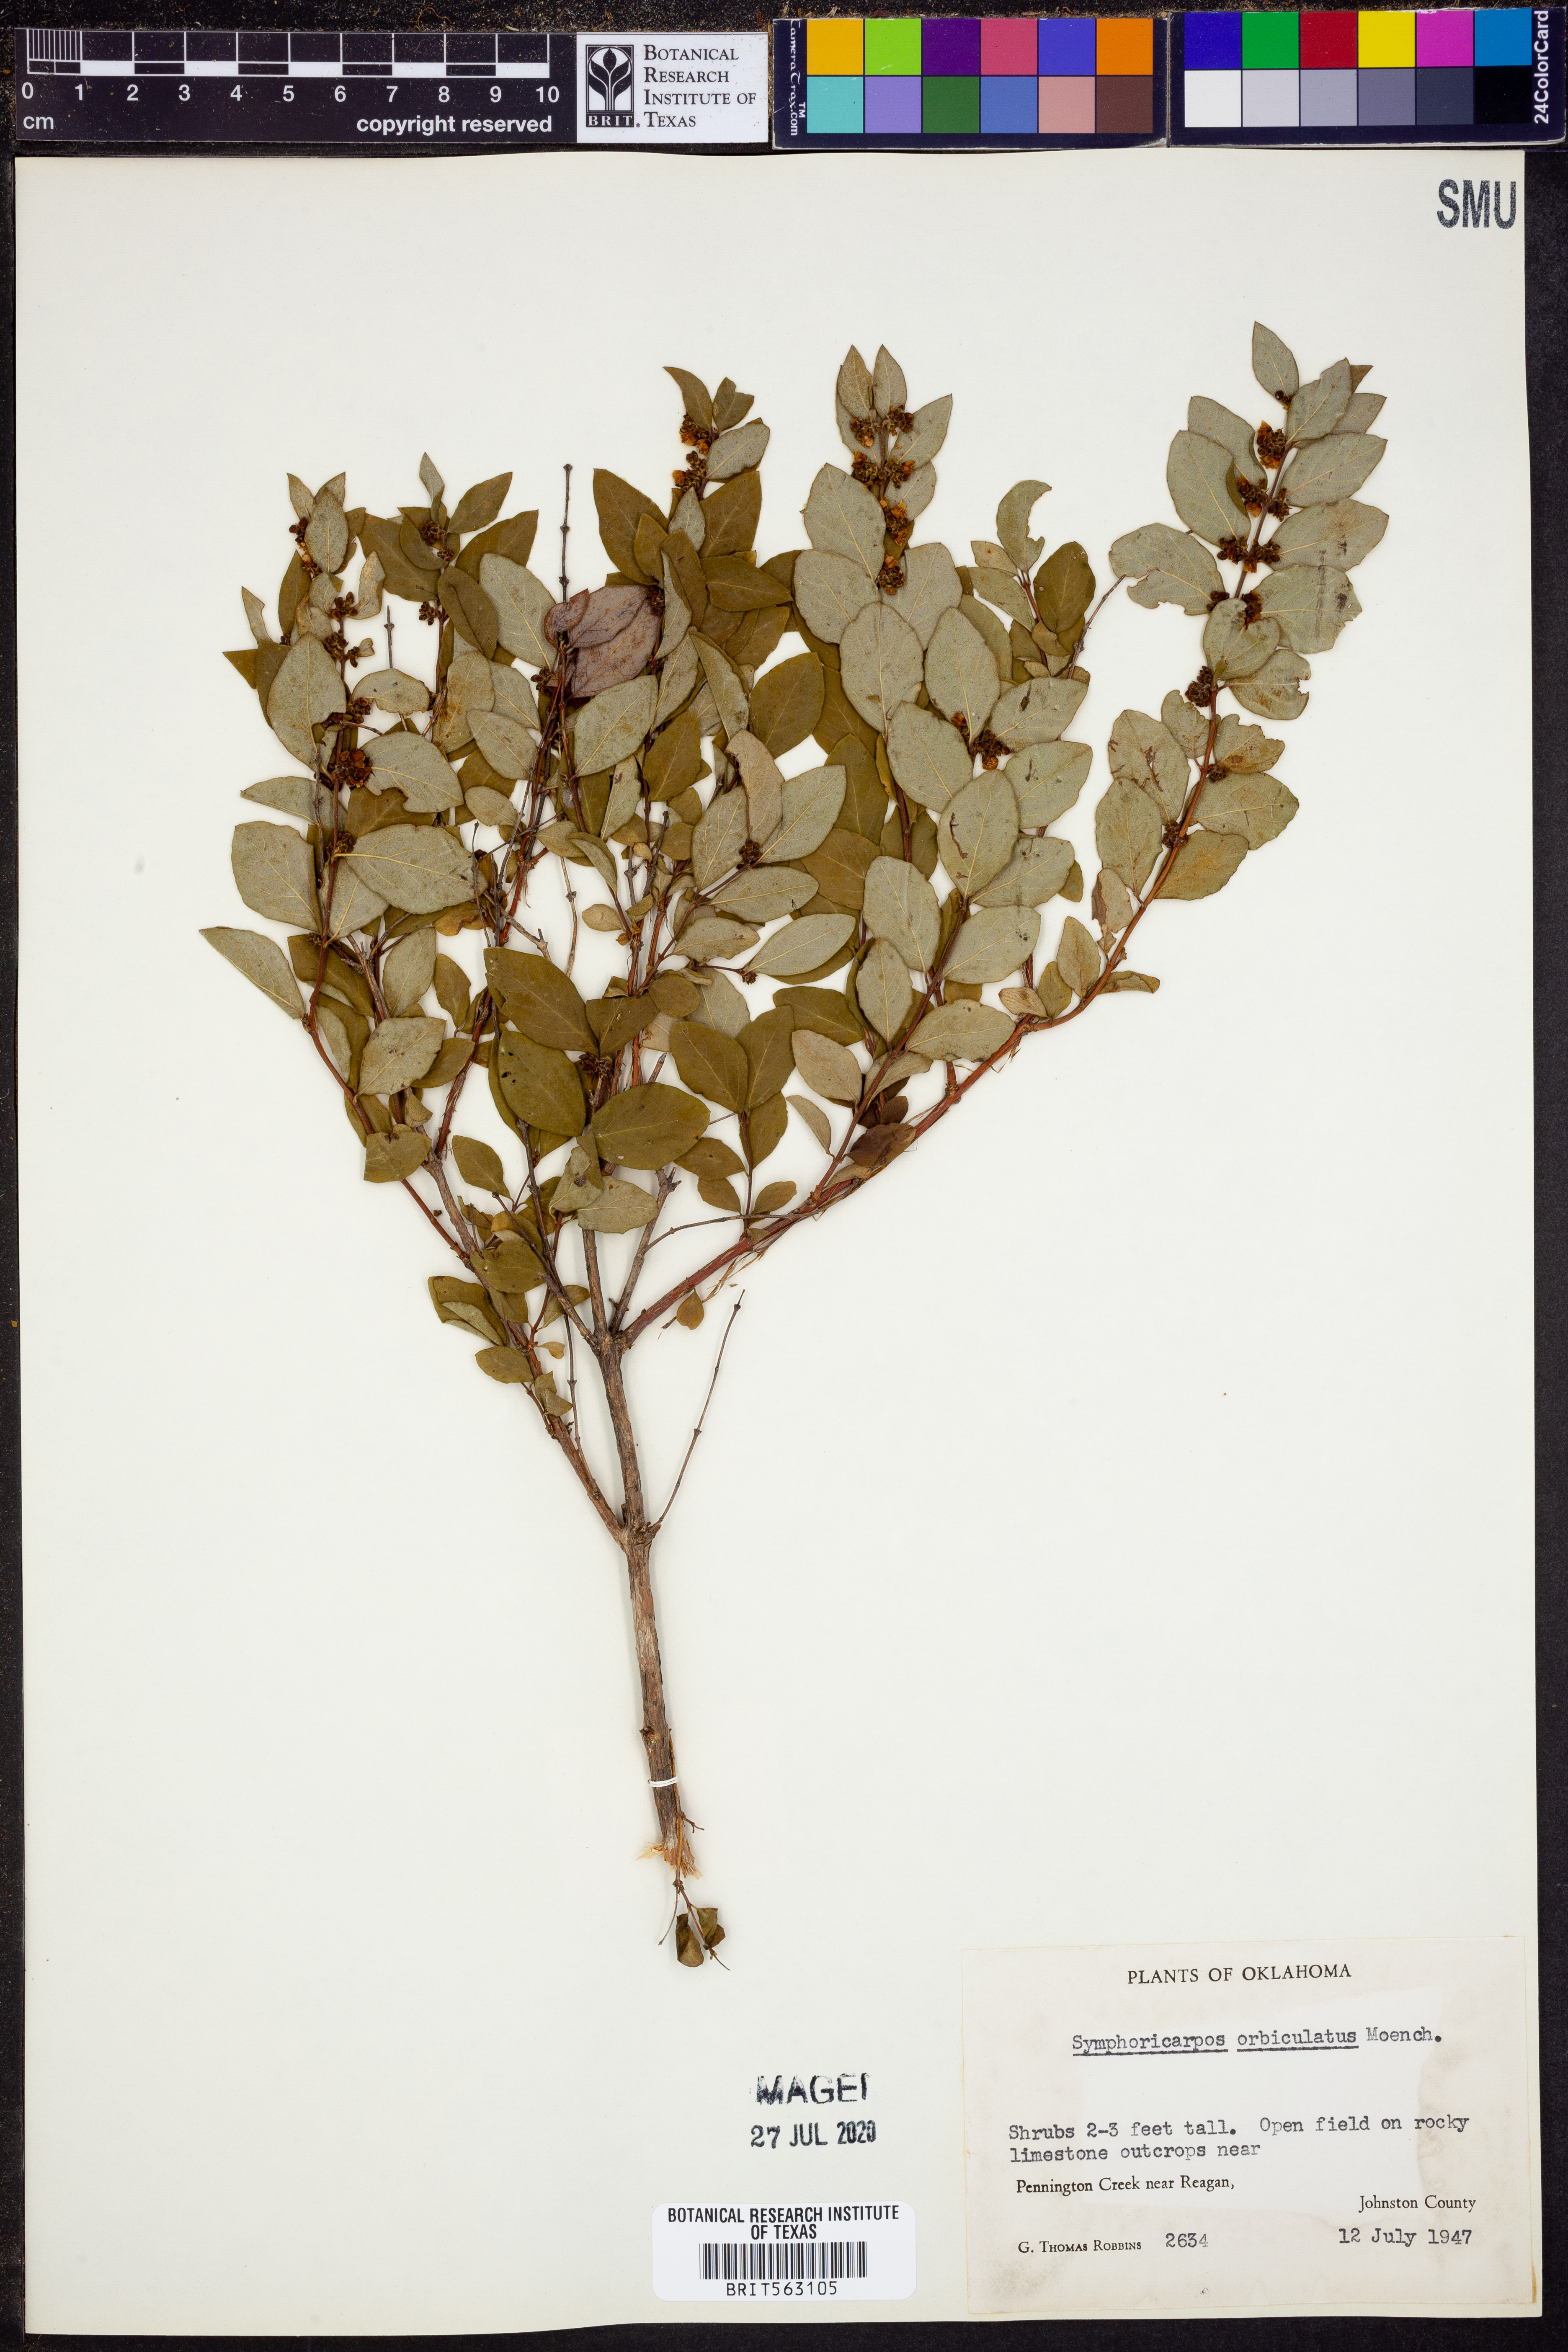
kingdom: Plantae
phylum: Tracheophyta
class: Magnoliopsida
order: Dipsacales
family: Caprifoliaceae
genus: Symphoricarpos
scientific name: Symphoricarpos orbiculatus
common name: Coralberry
